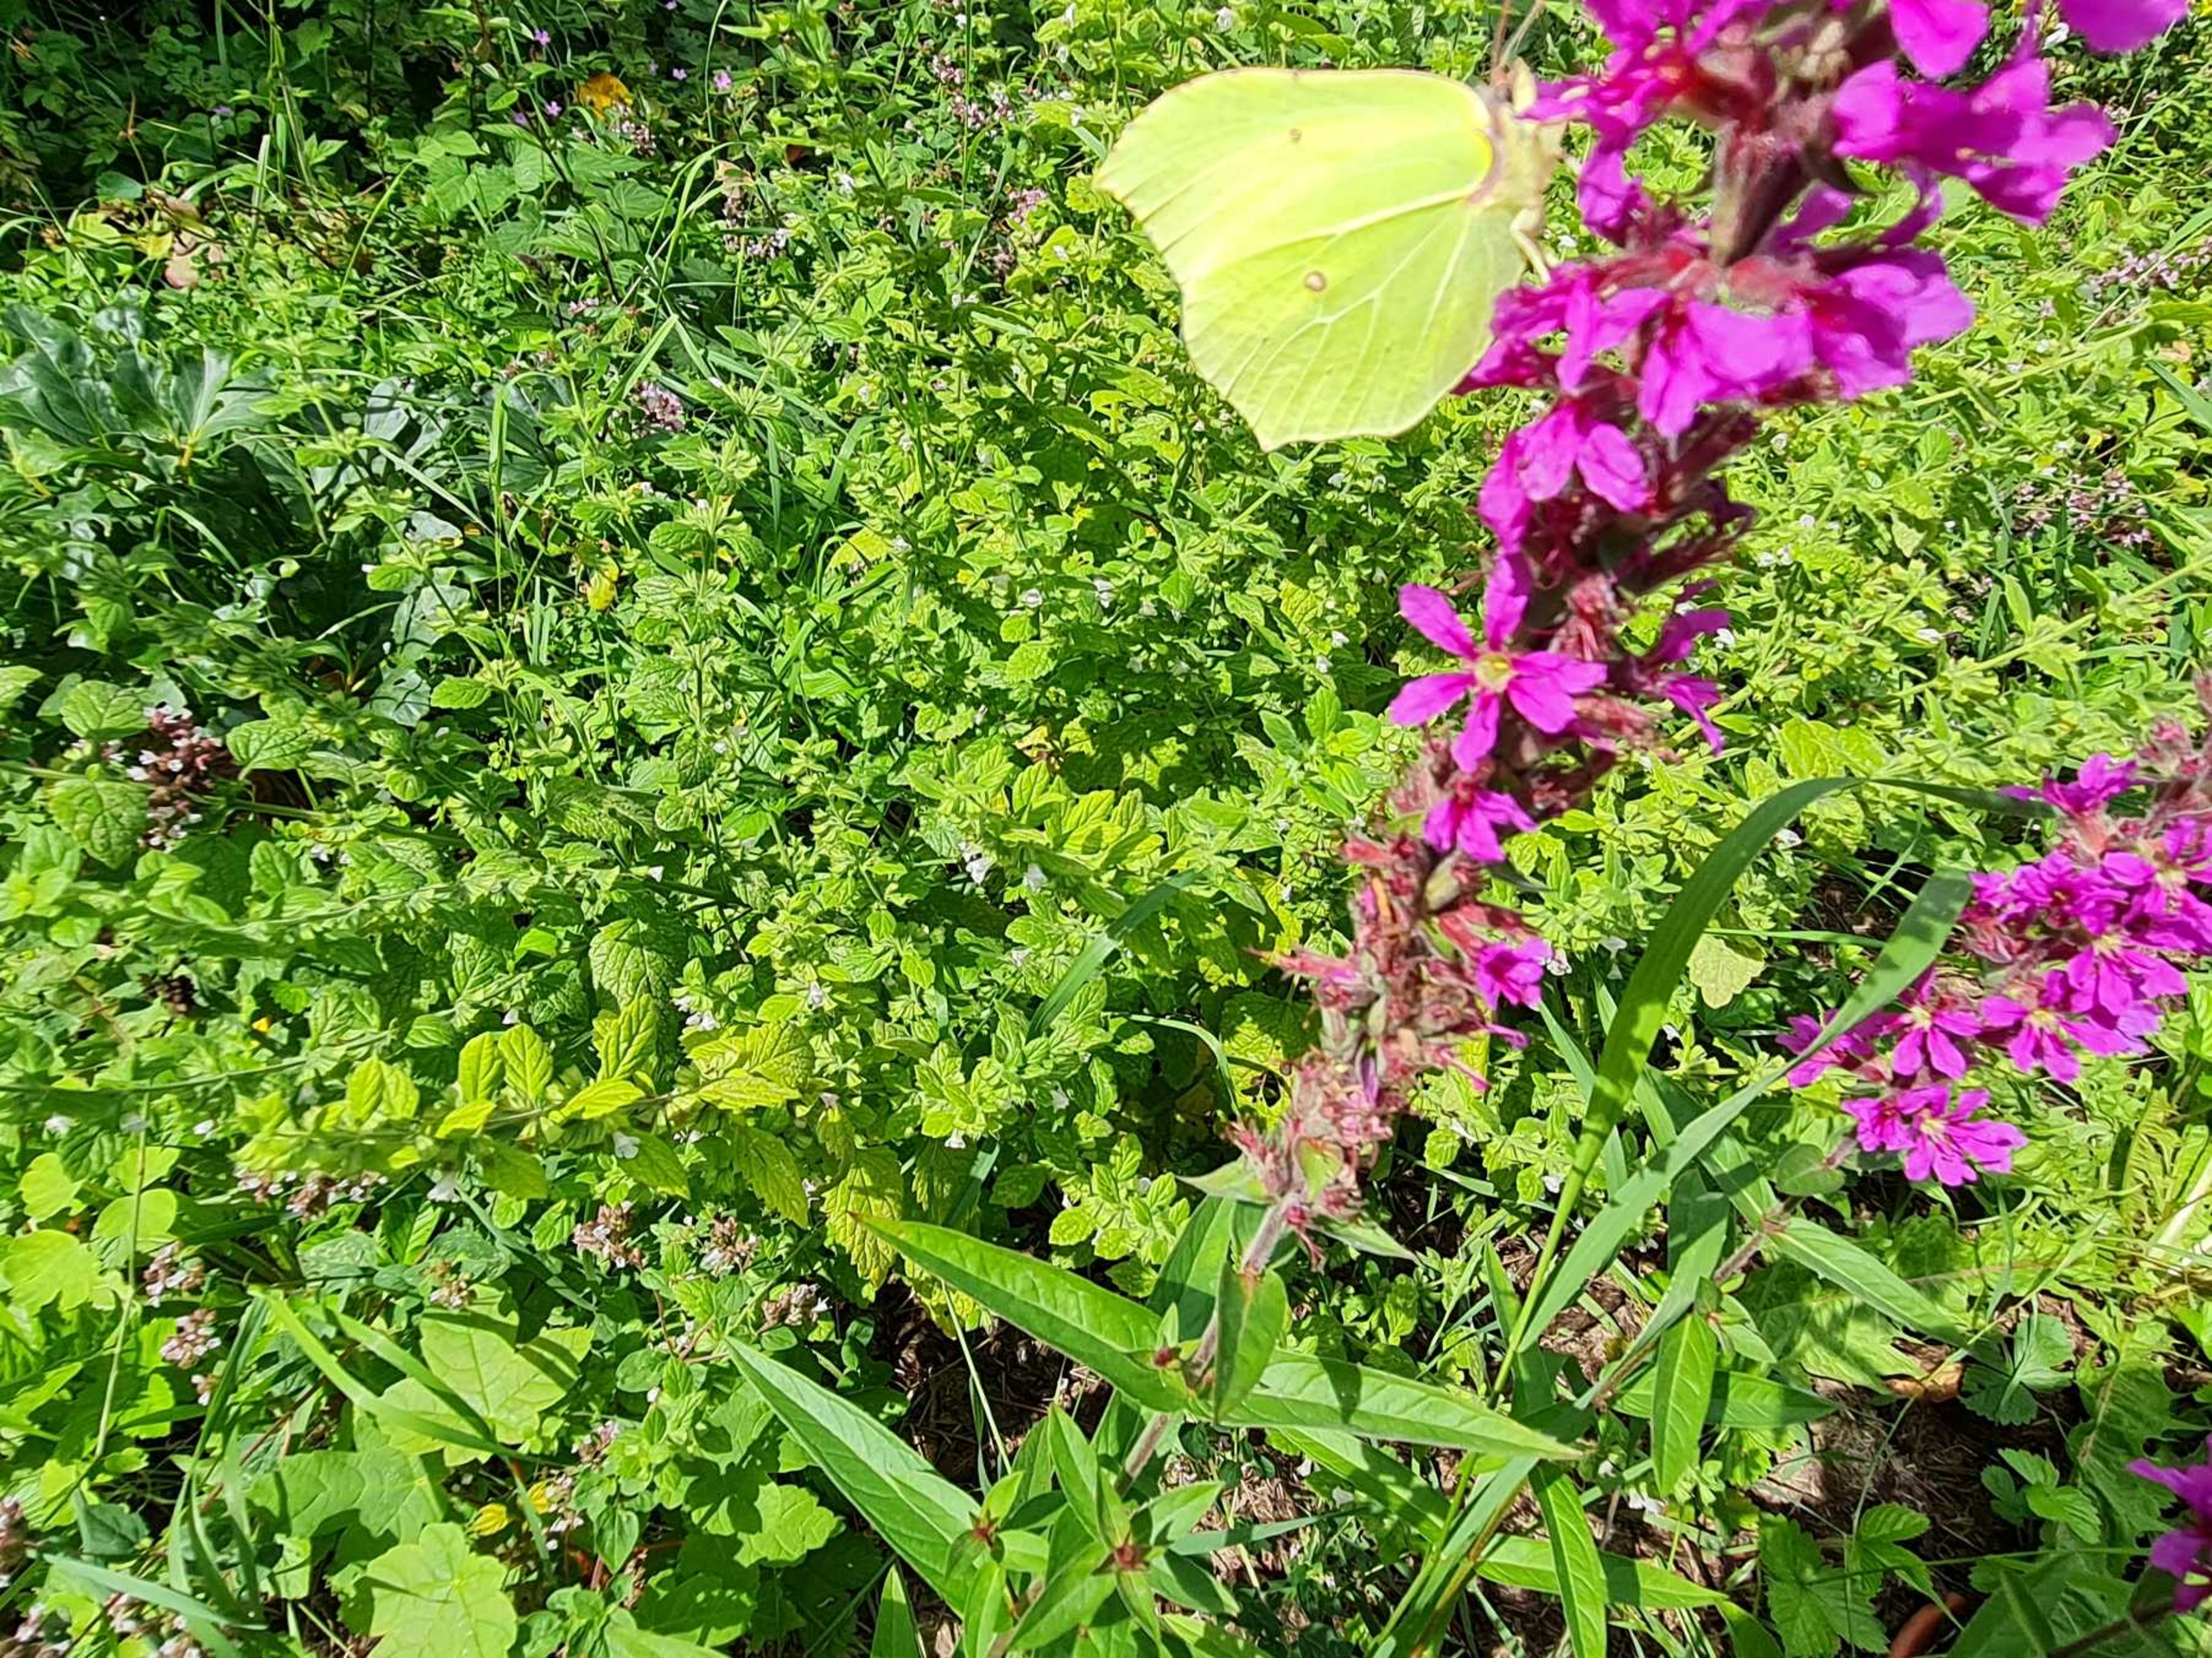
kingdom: Animalia
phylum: Arthropoda
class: Insecta
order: Lepidoptera
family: Pieridae
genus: Gonepteryx
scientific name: Gonepteryx rhamni
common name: Citronsommerfugl
